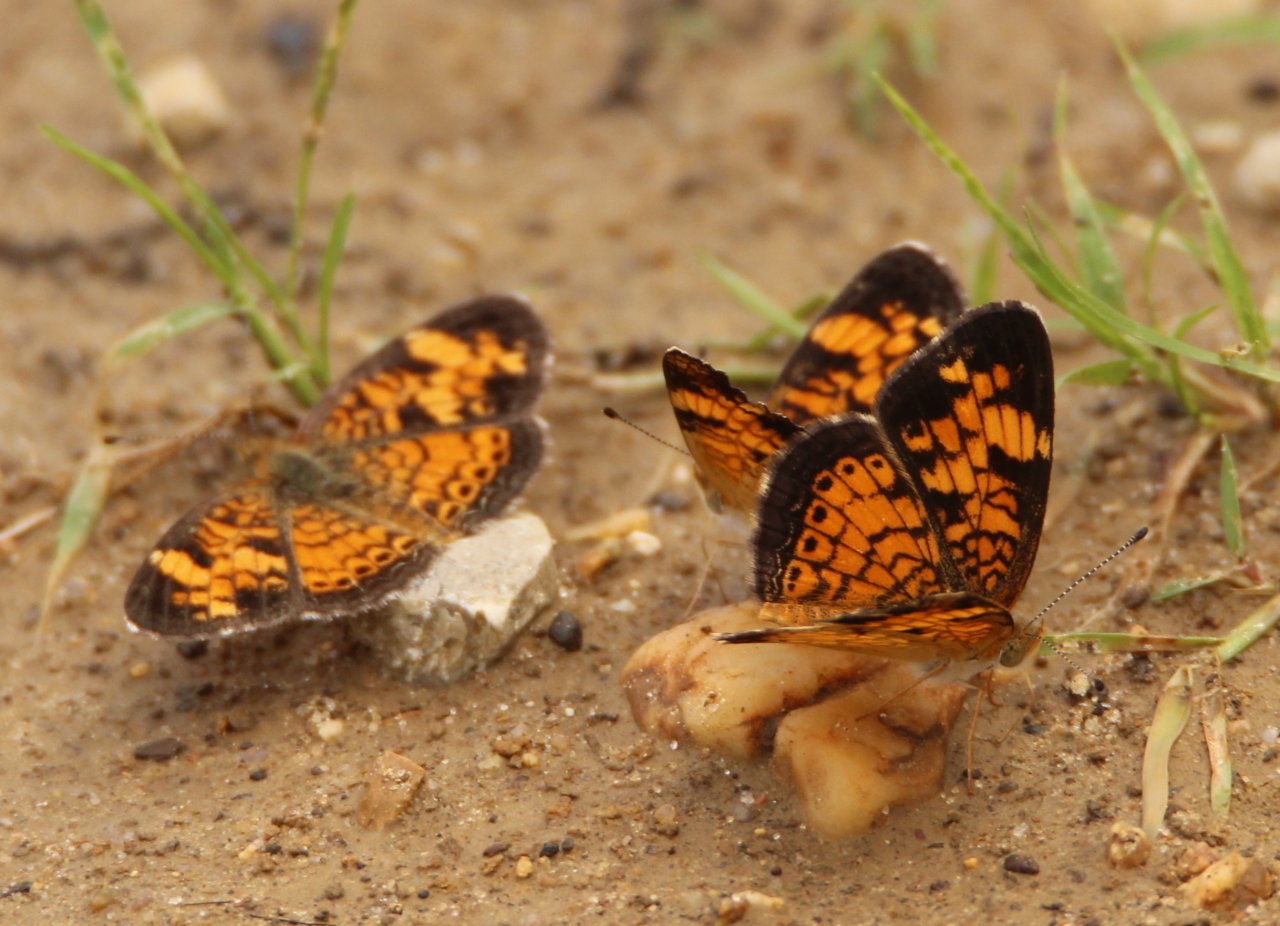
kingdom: Animalia
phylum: Arthropoda
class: Insecta
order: Lepidoptera
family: Nymphalidae
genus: Phyciodes
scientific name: Phyciodes tharos
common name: Pearl Crescent
